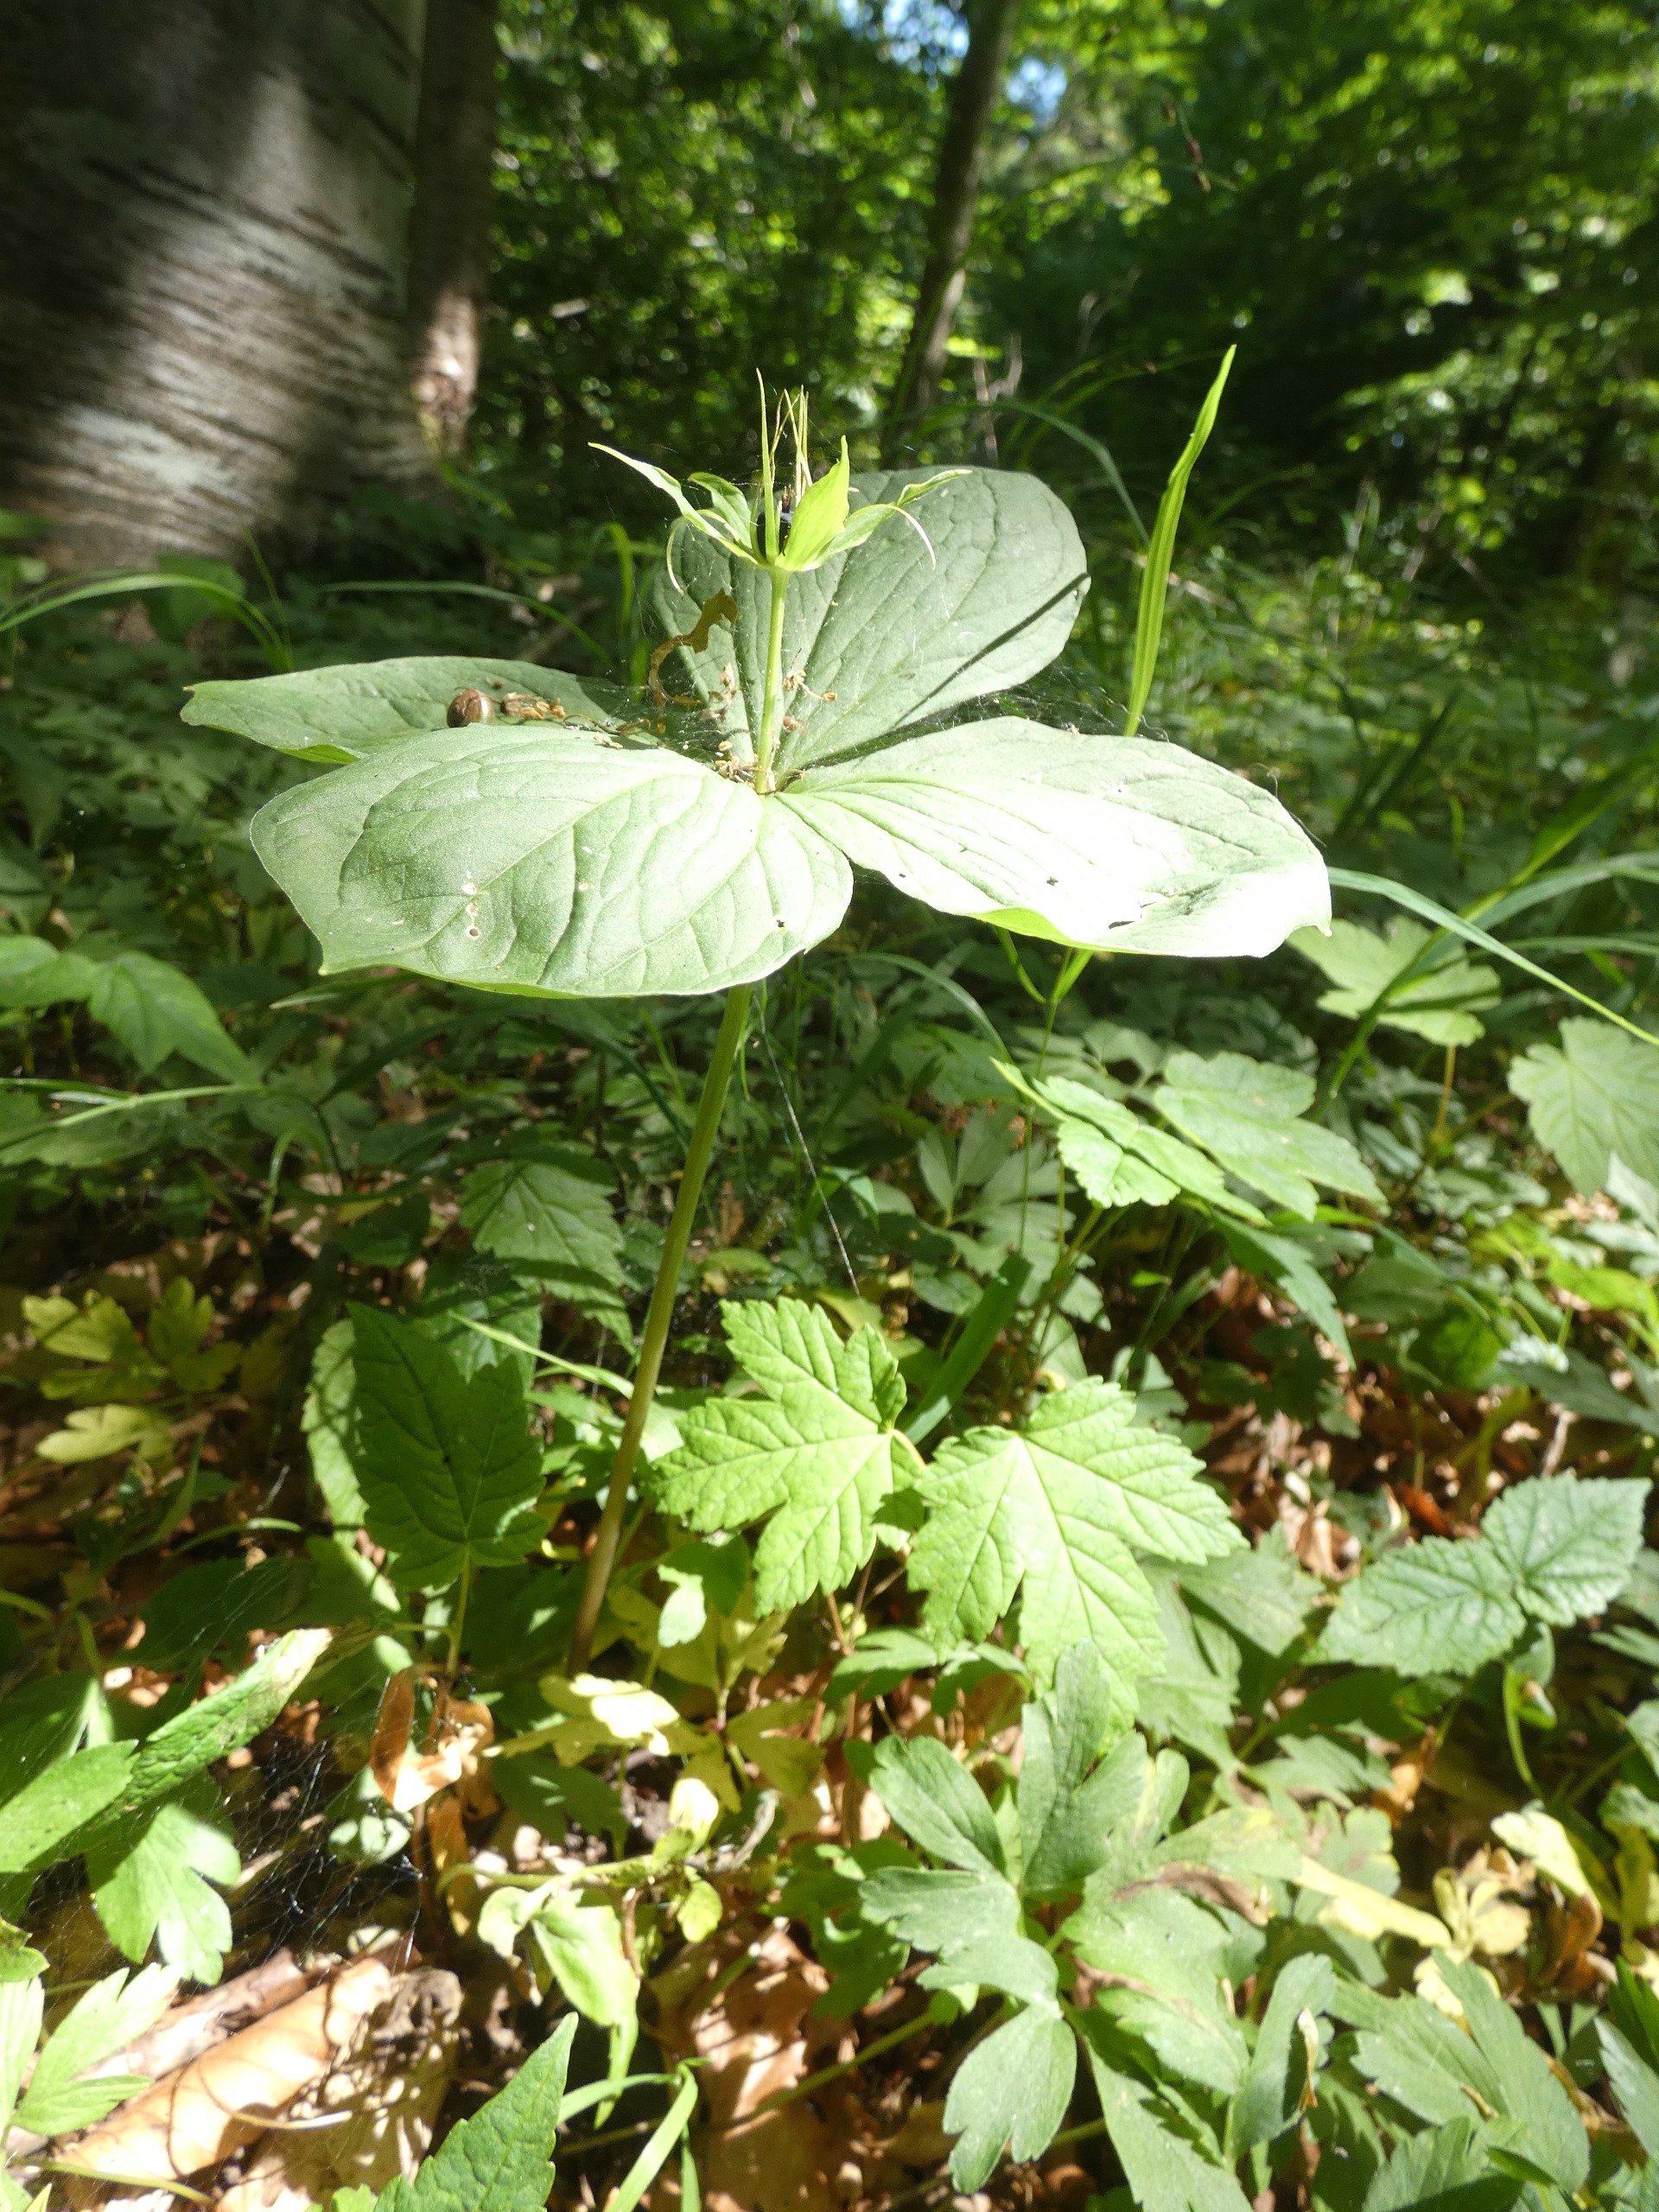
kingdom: Plantae
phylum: Tracheophyta
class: Liliopsida
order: Liliales
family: Melanthiaceae
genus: Paris
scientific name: Paris quadrifolia
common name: Firblad
